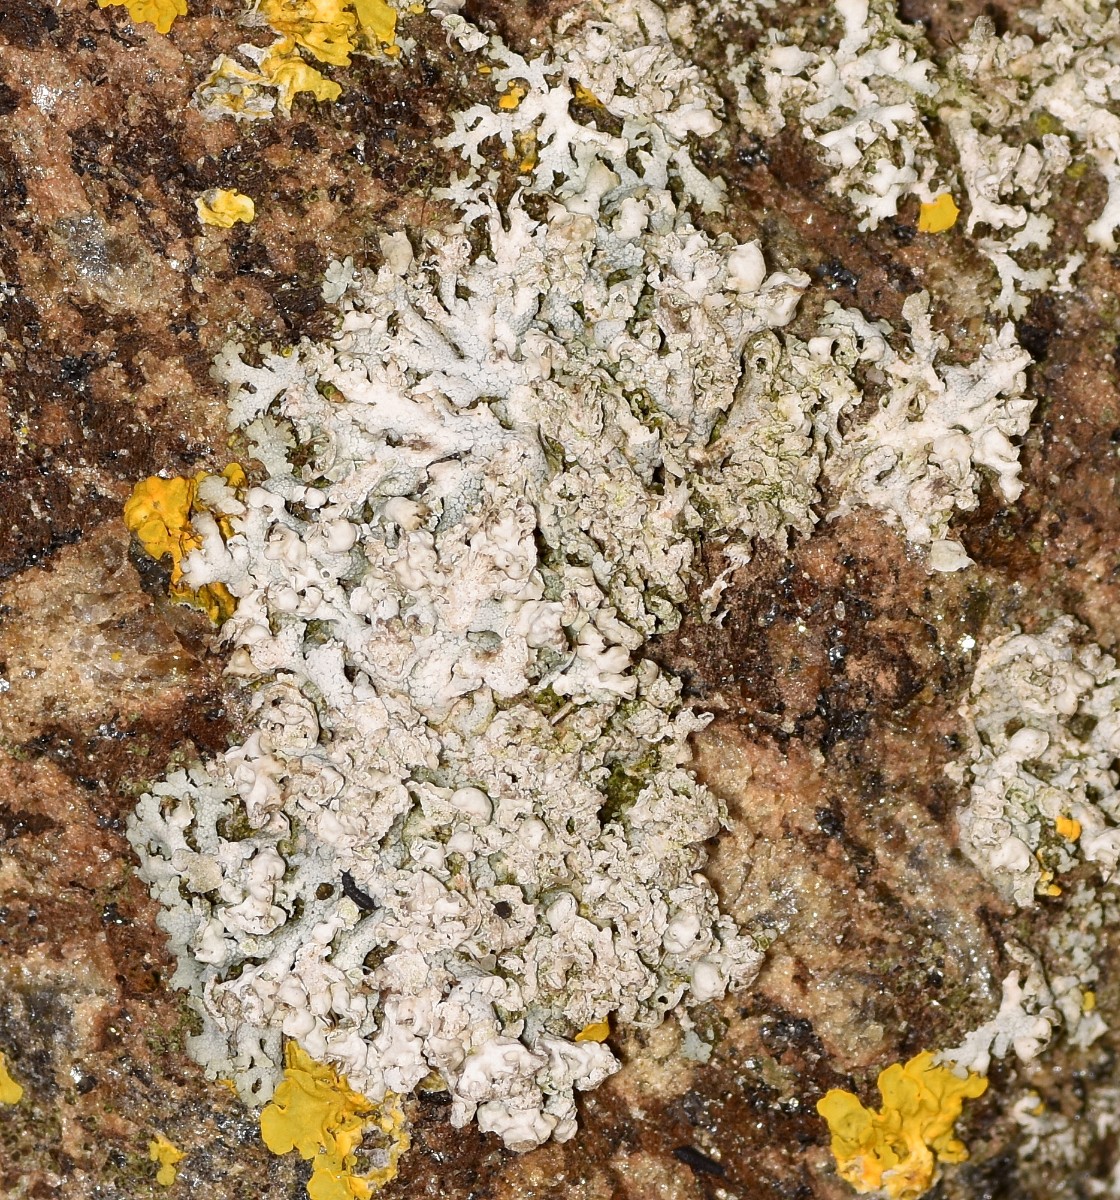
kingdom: Fungi
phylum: Ascomycota
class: Lecanoromycetes
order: Caliciales
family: Physciaceae
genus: Physcia
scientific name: Physcia adscendens
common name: hætte-rosetlav
